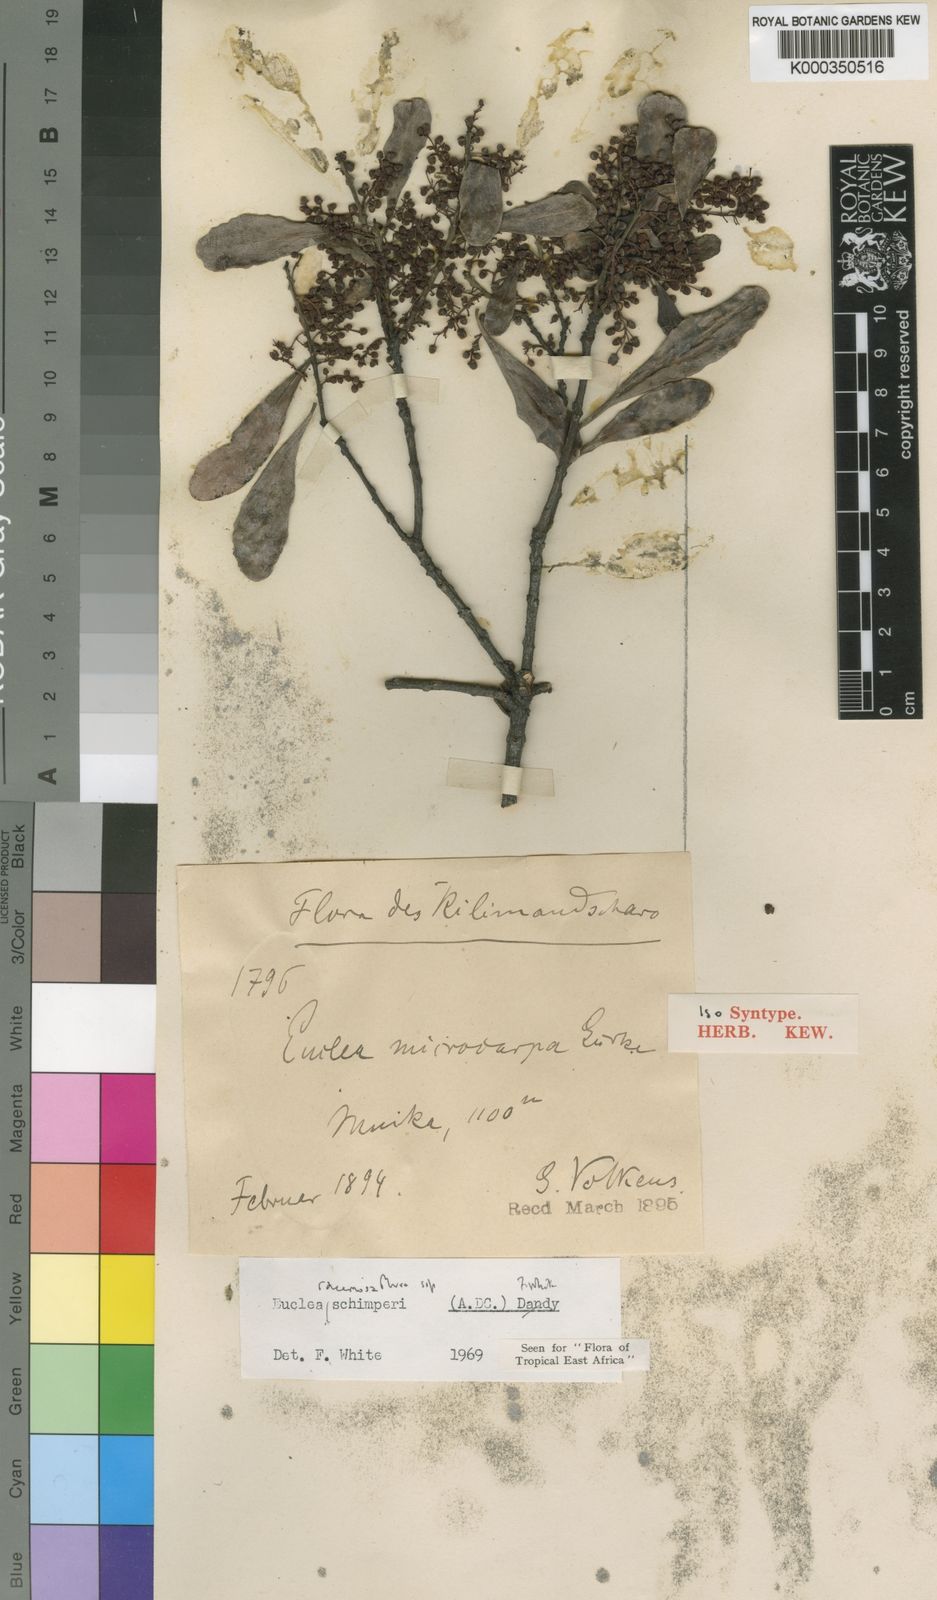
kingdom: Plantae
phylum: Tracheophyta
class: Magnoliopsida
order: Ericales
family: Ebenaceae
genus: Euclea
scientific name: Euclea racemosa
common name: Dune guarri
